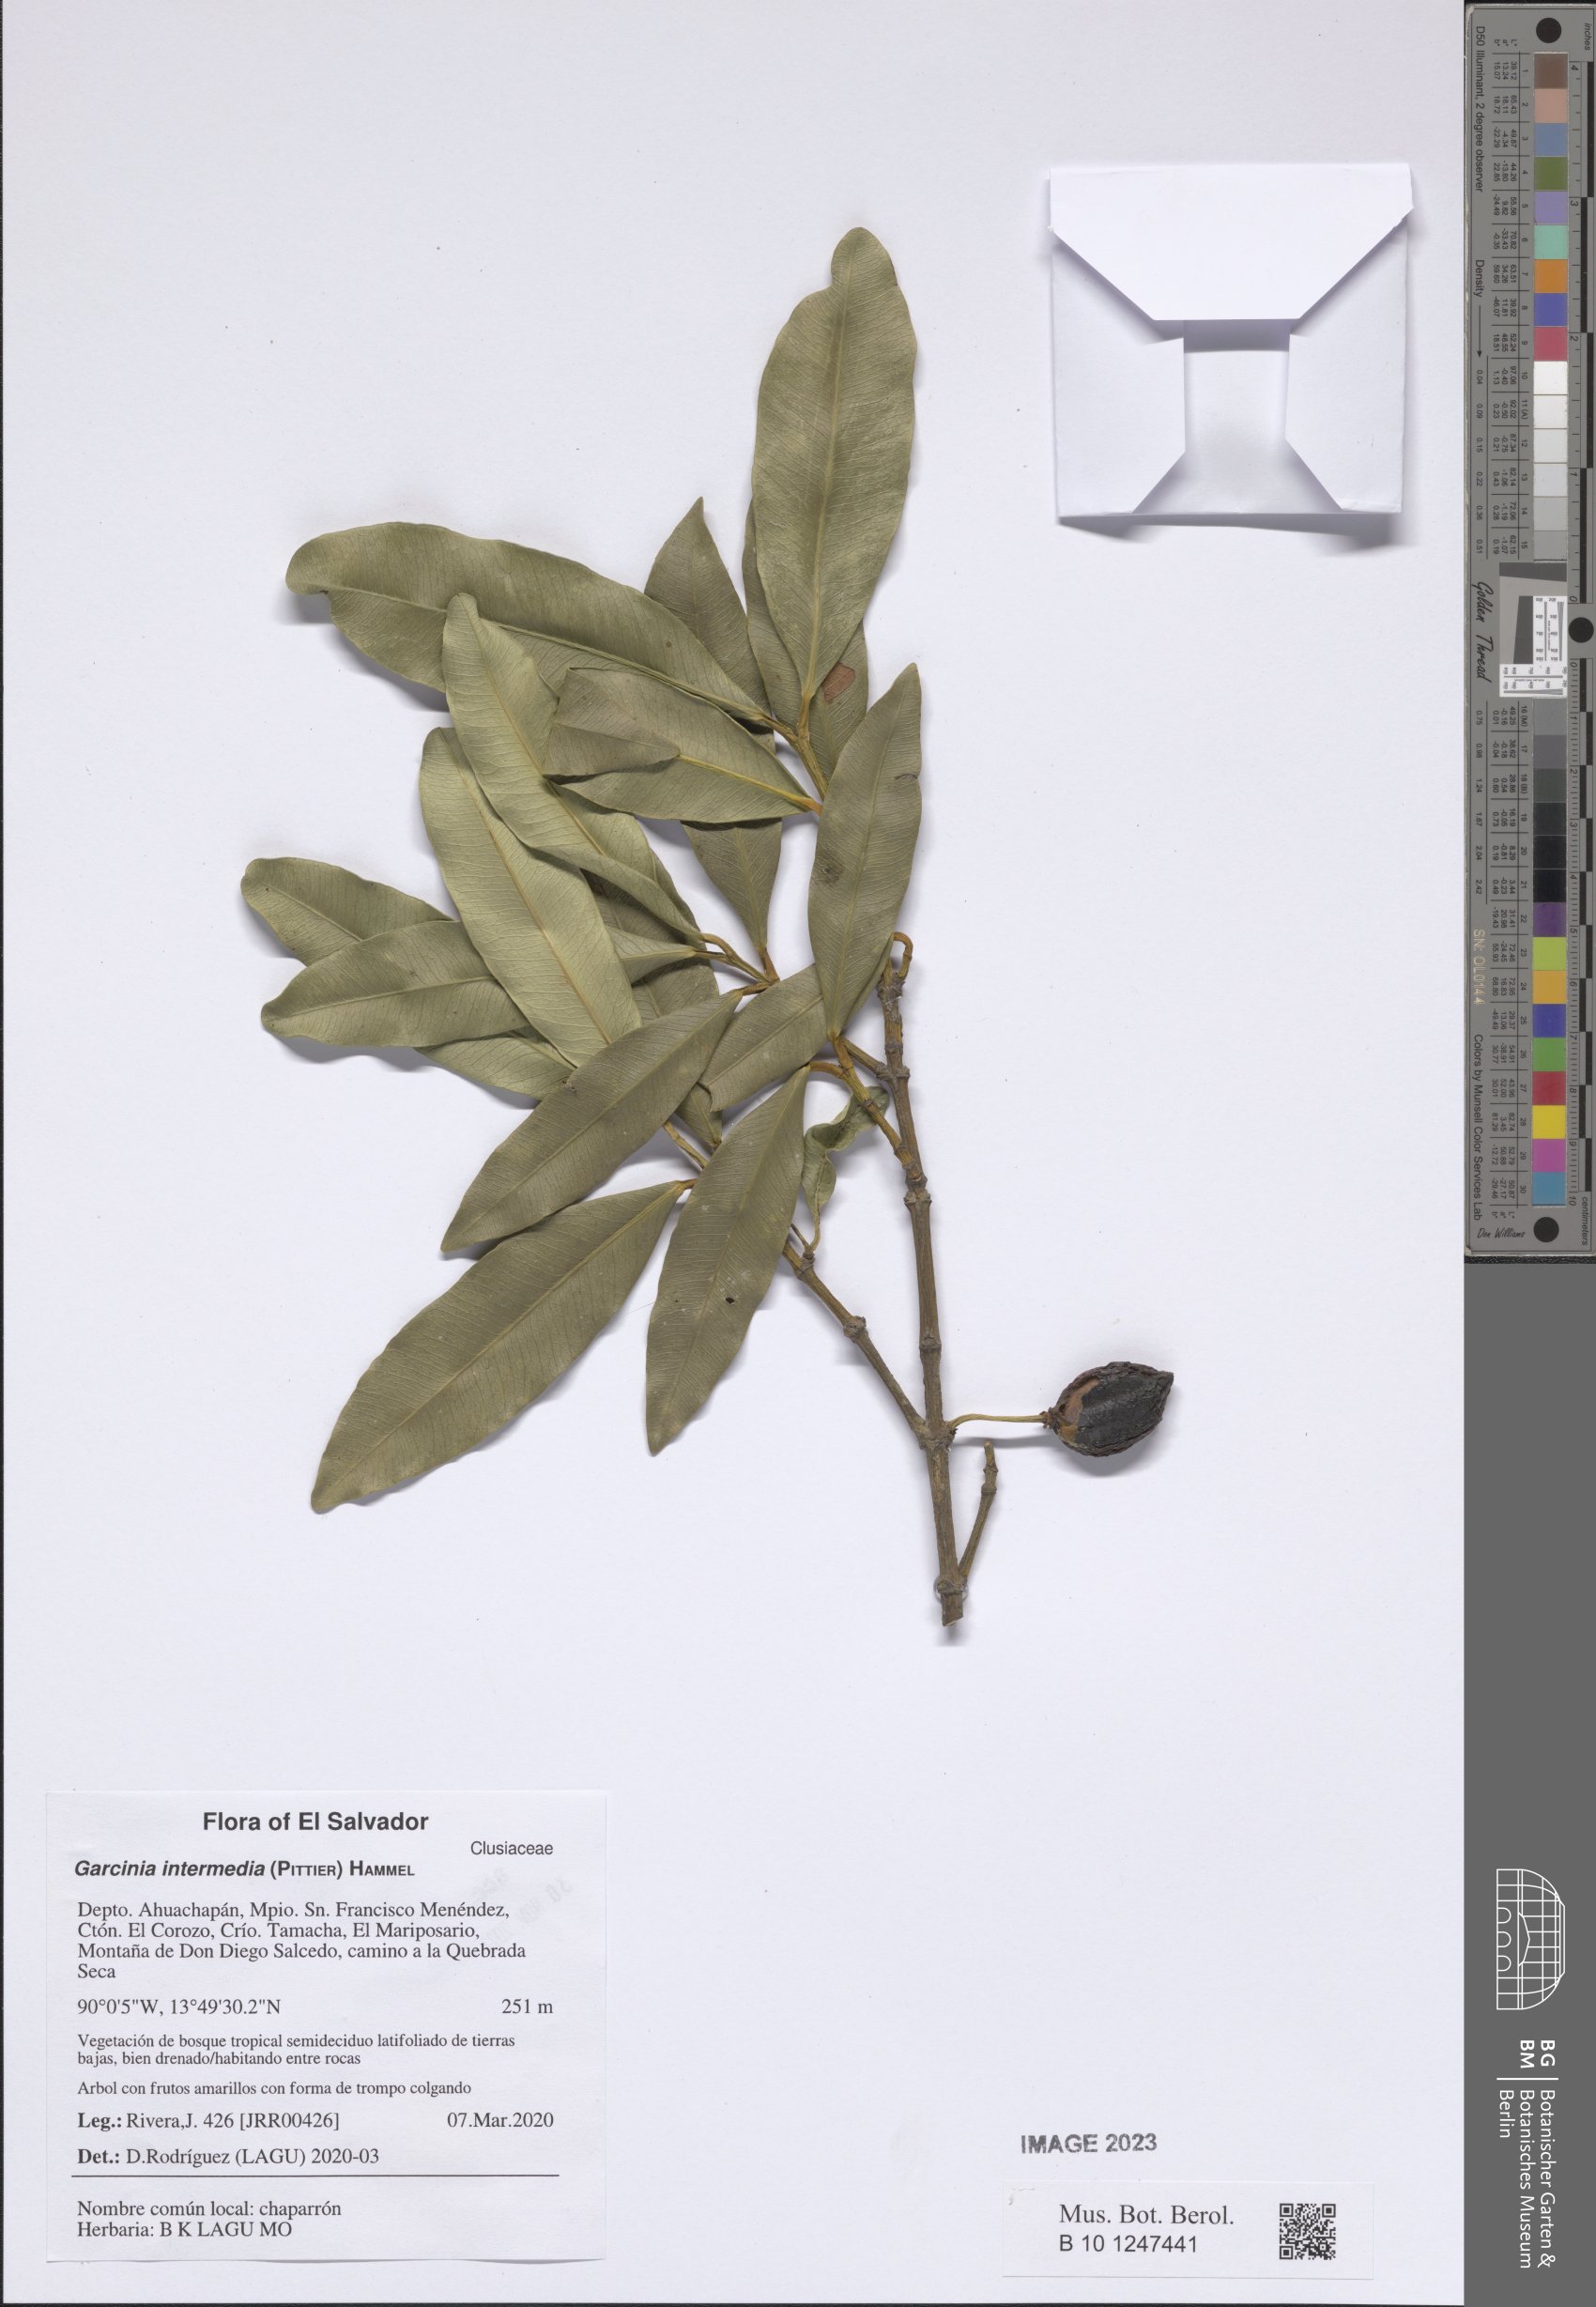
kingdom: Plantae
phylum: Tracheophyta
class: Magnoliopsida
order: Malpighiales
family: Clusiaceae
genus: Garcinia
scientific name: Garcinia intermedia
